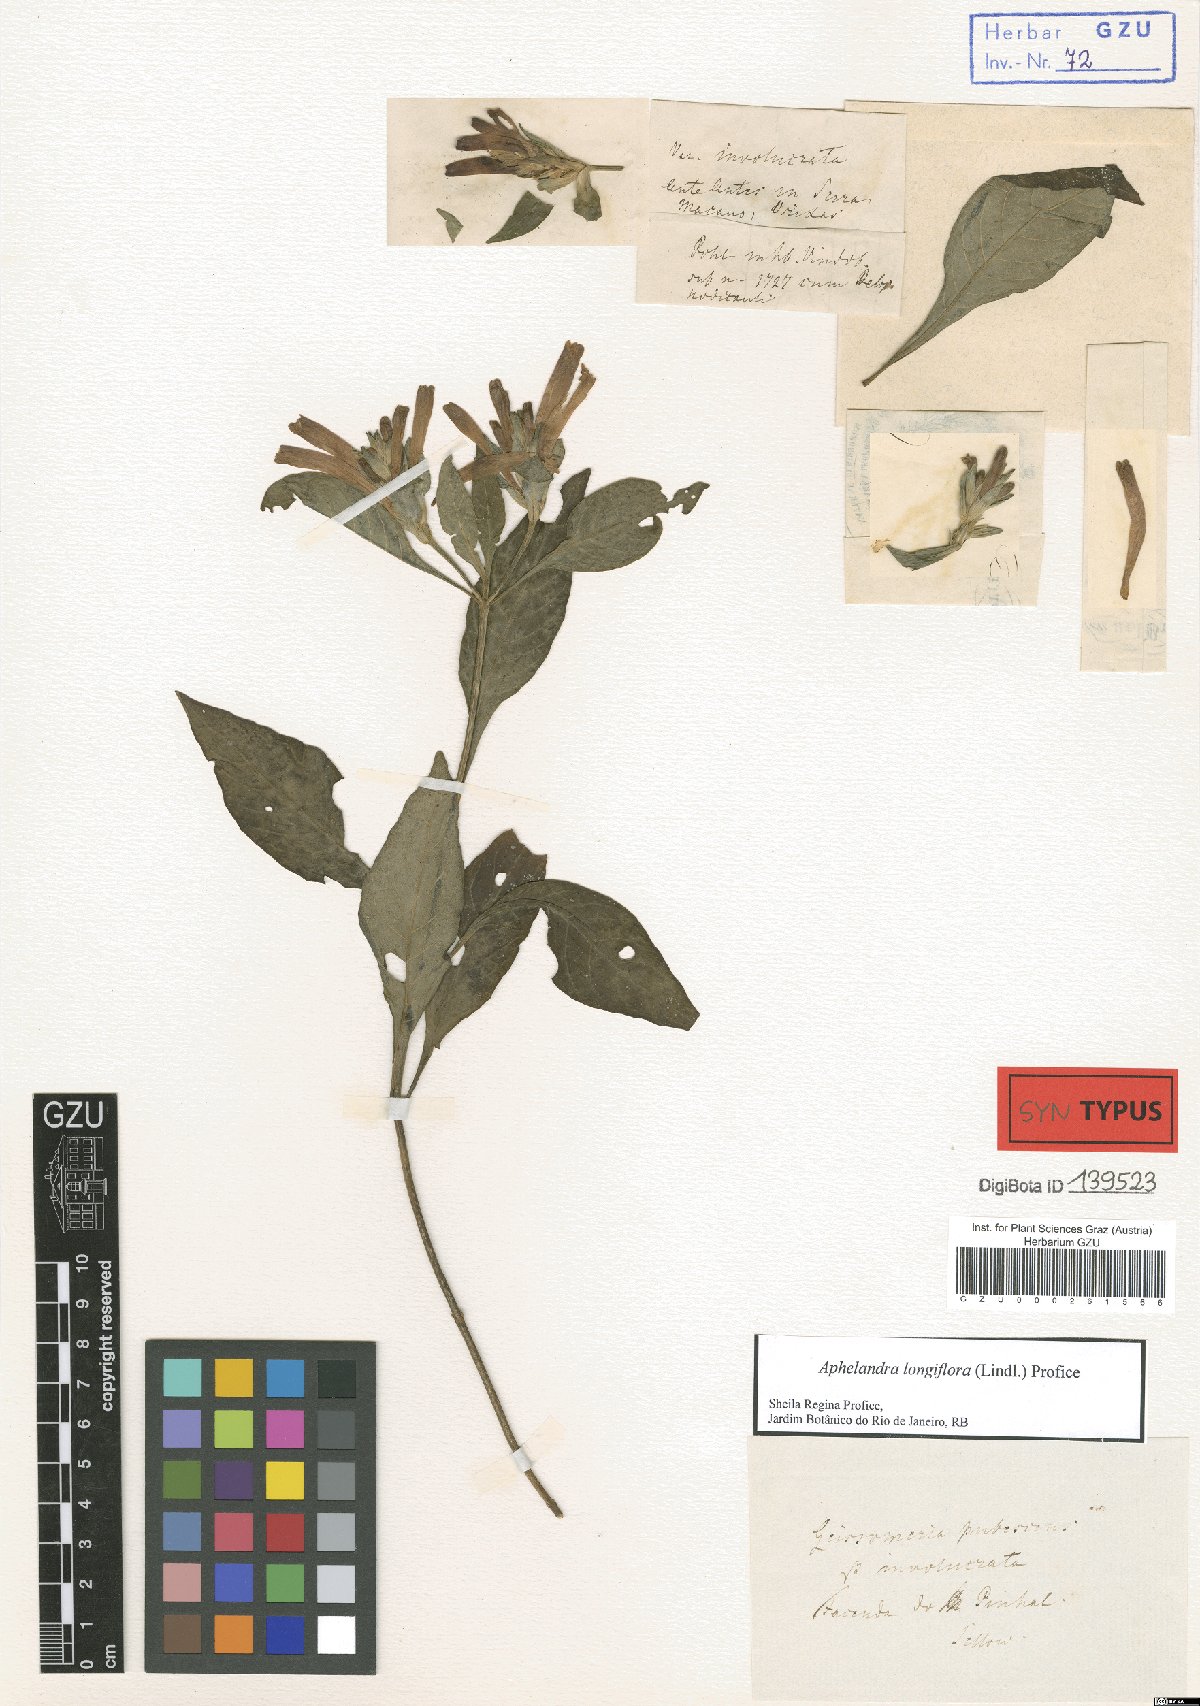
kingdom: Plantae
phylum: Tracheophyta
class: Magnoliopsida
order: Lamiales
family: Acanthaceae
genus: Aphelandra
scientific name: Aphelandra longiflora
